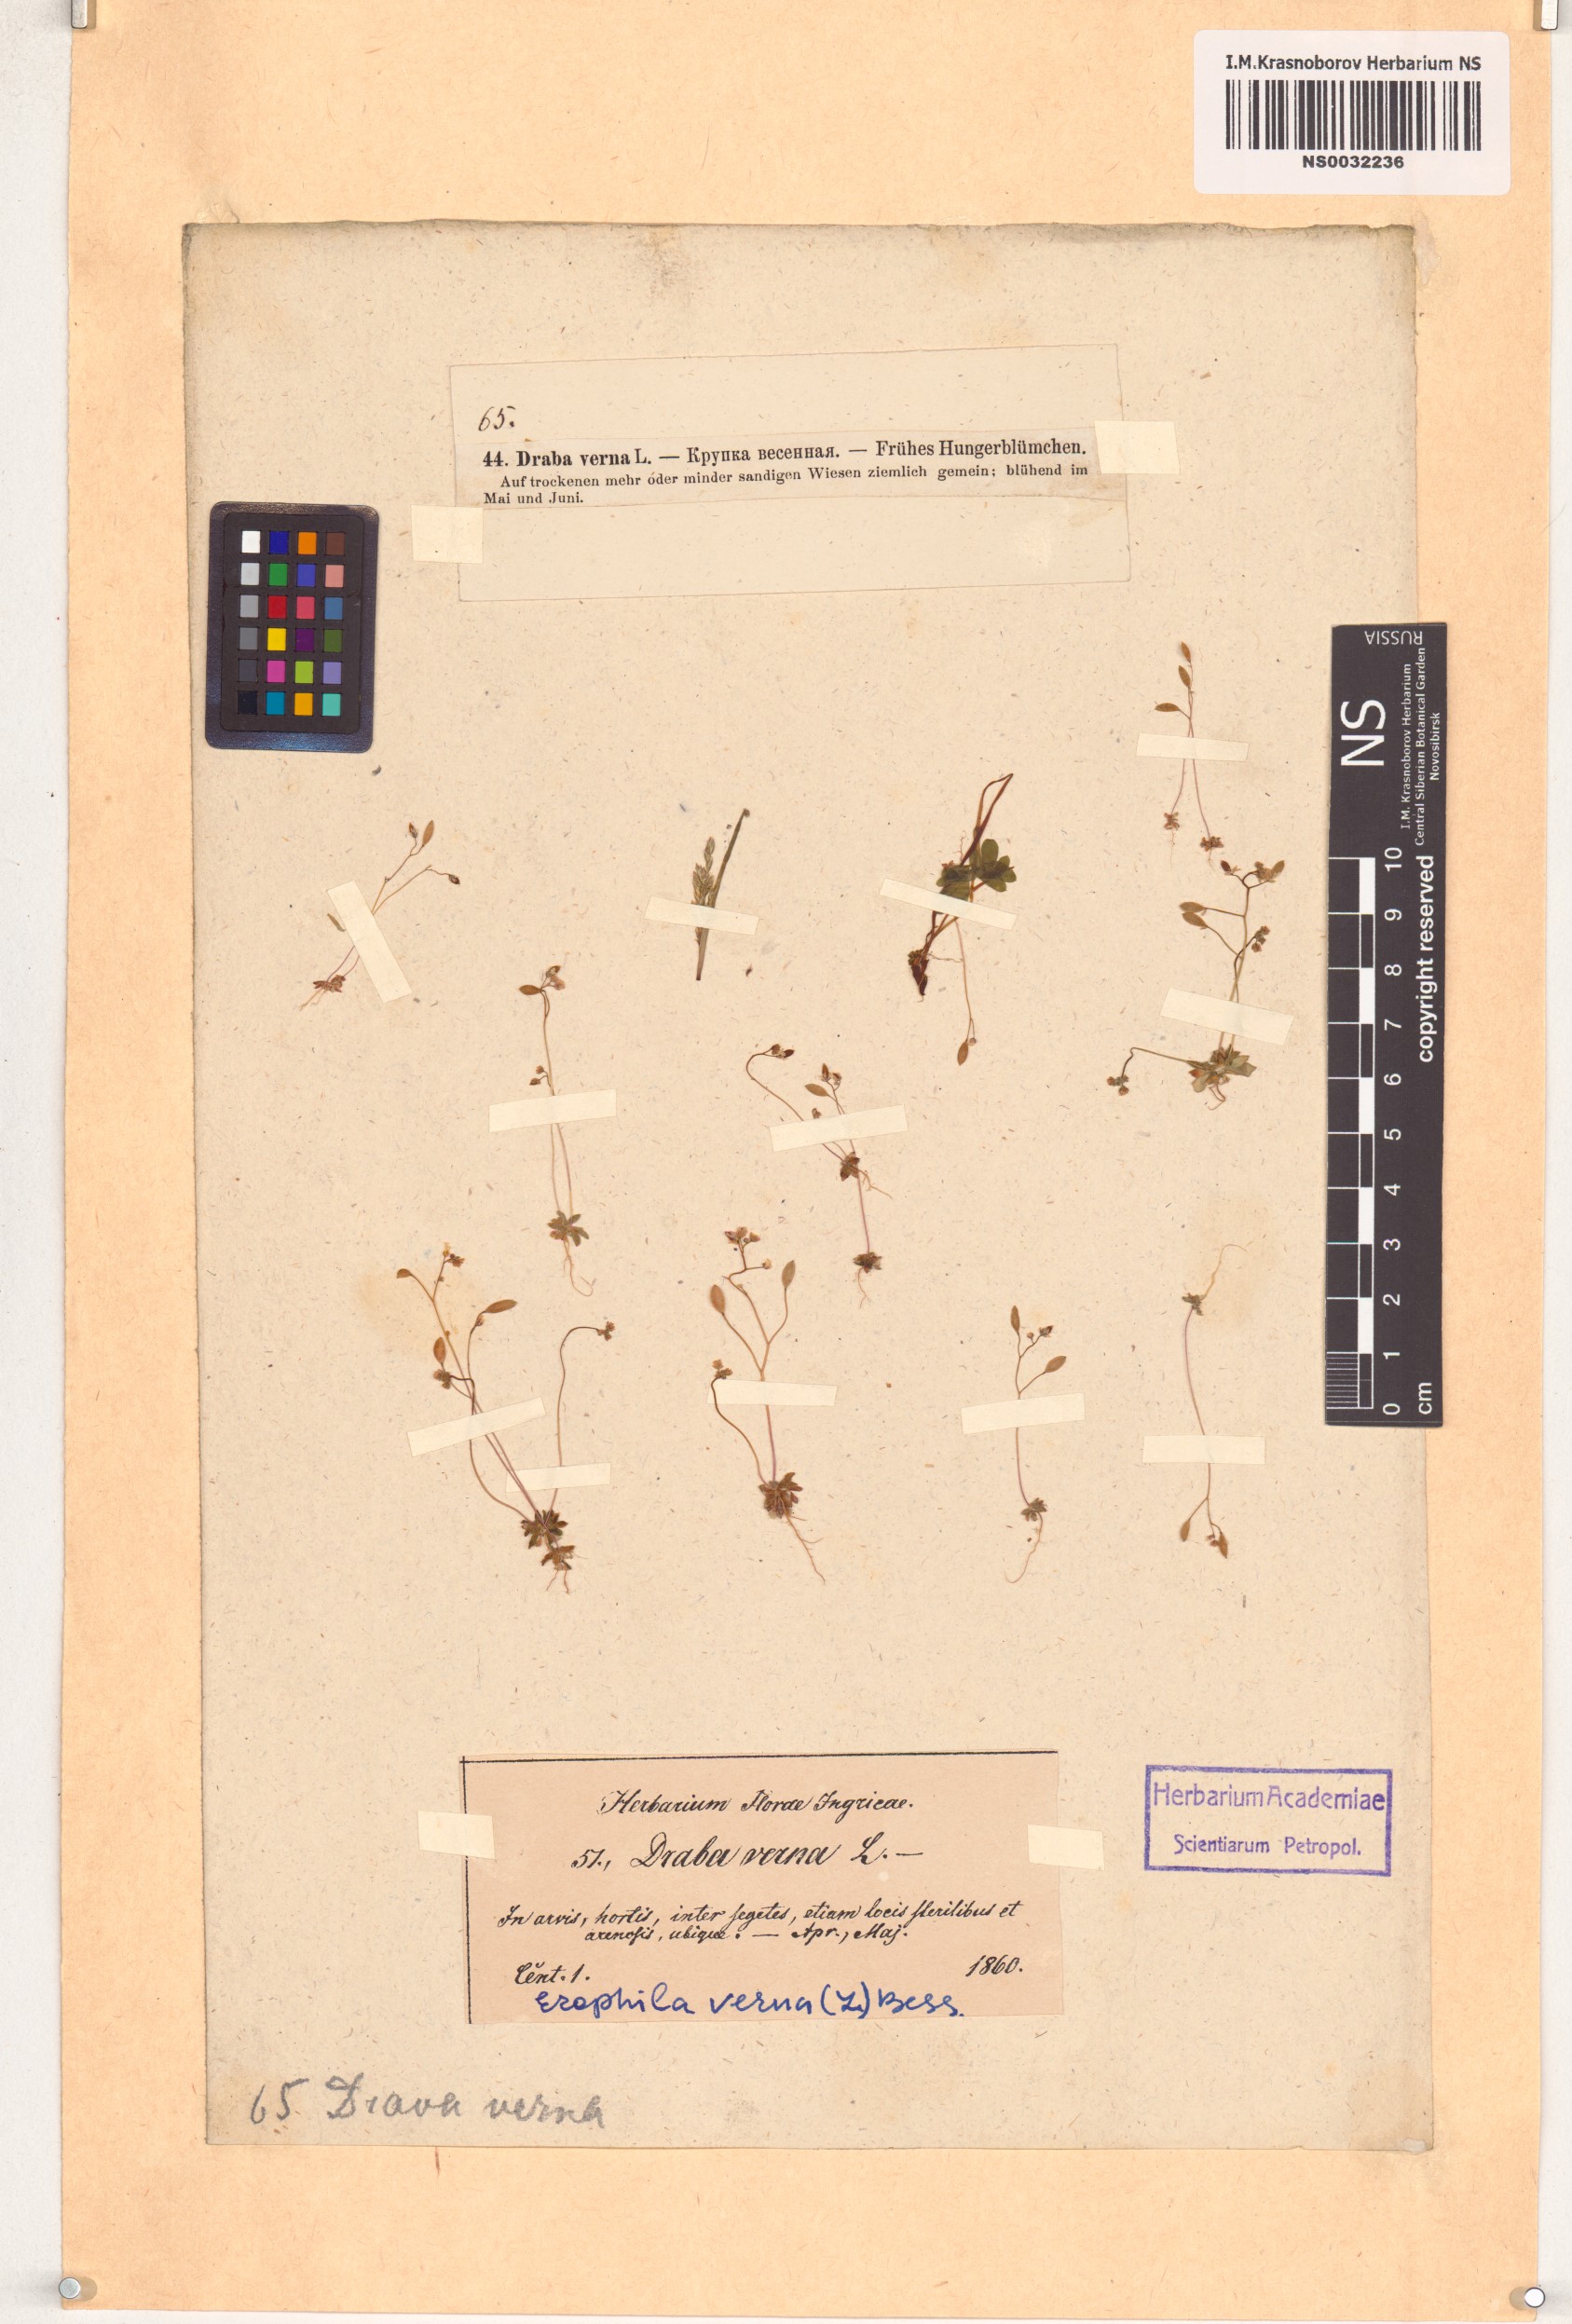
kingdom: Plantae
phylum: Tracheophyta
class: Magnoliopsida
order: Brassicales
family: Brassicaceae
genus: Draba
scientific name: Draba verna
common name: Spring draba
